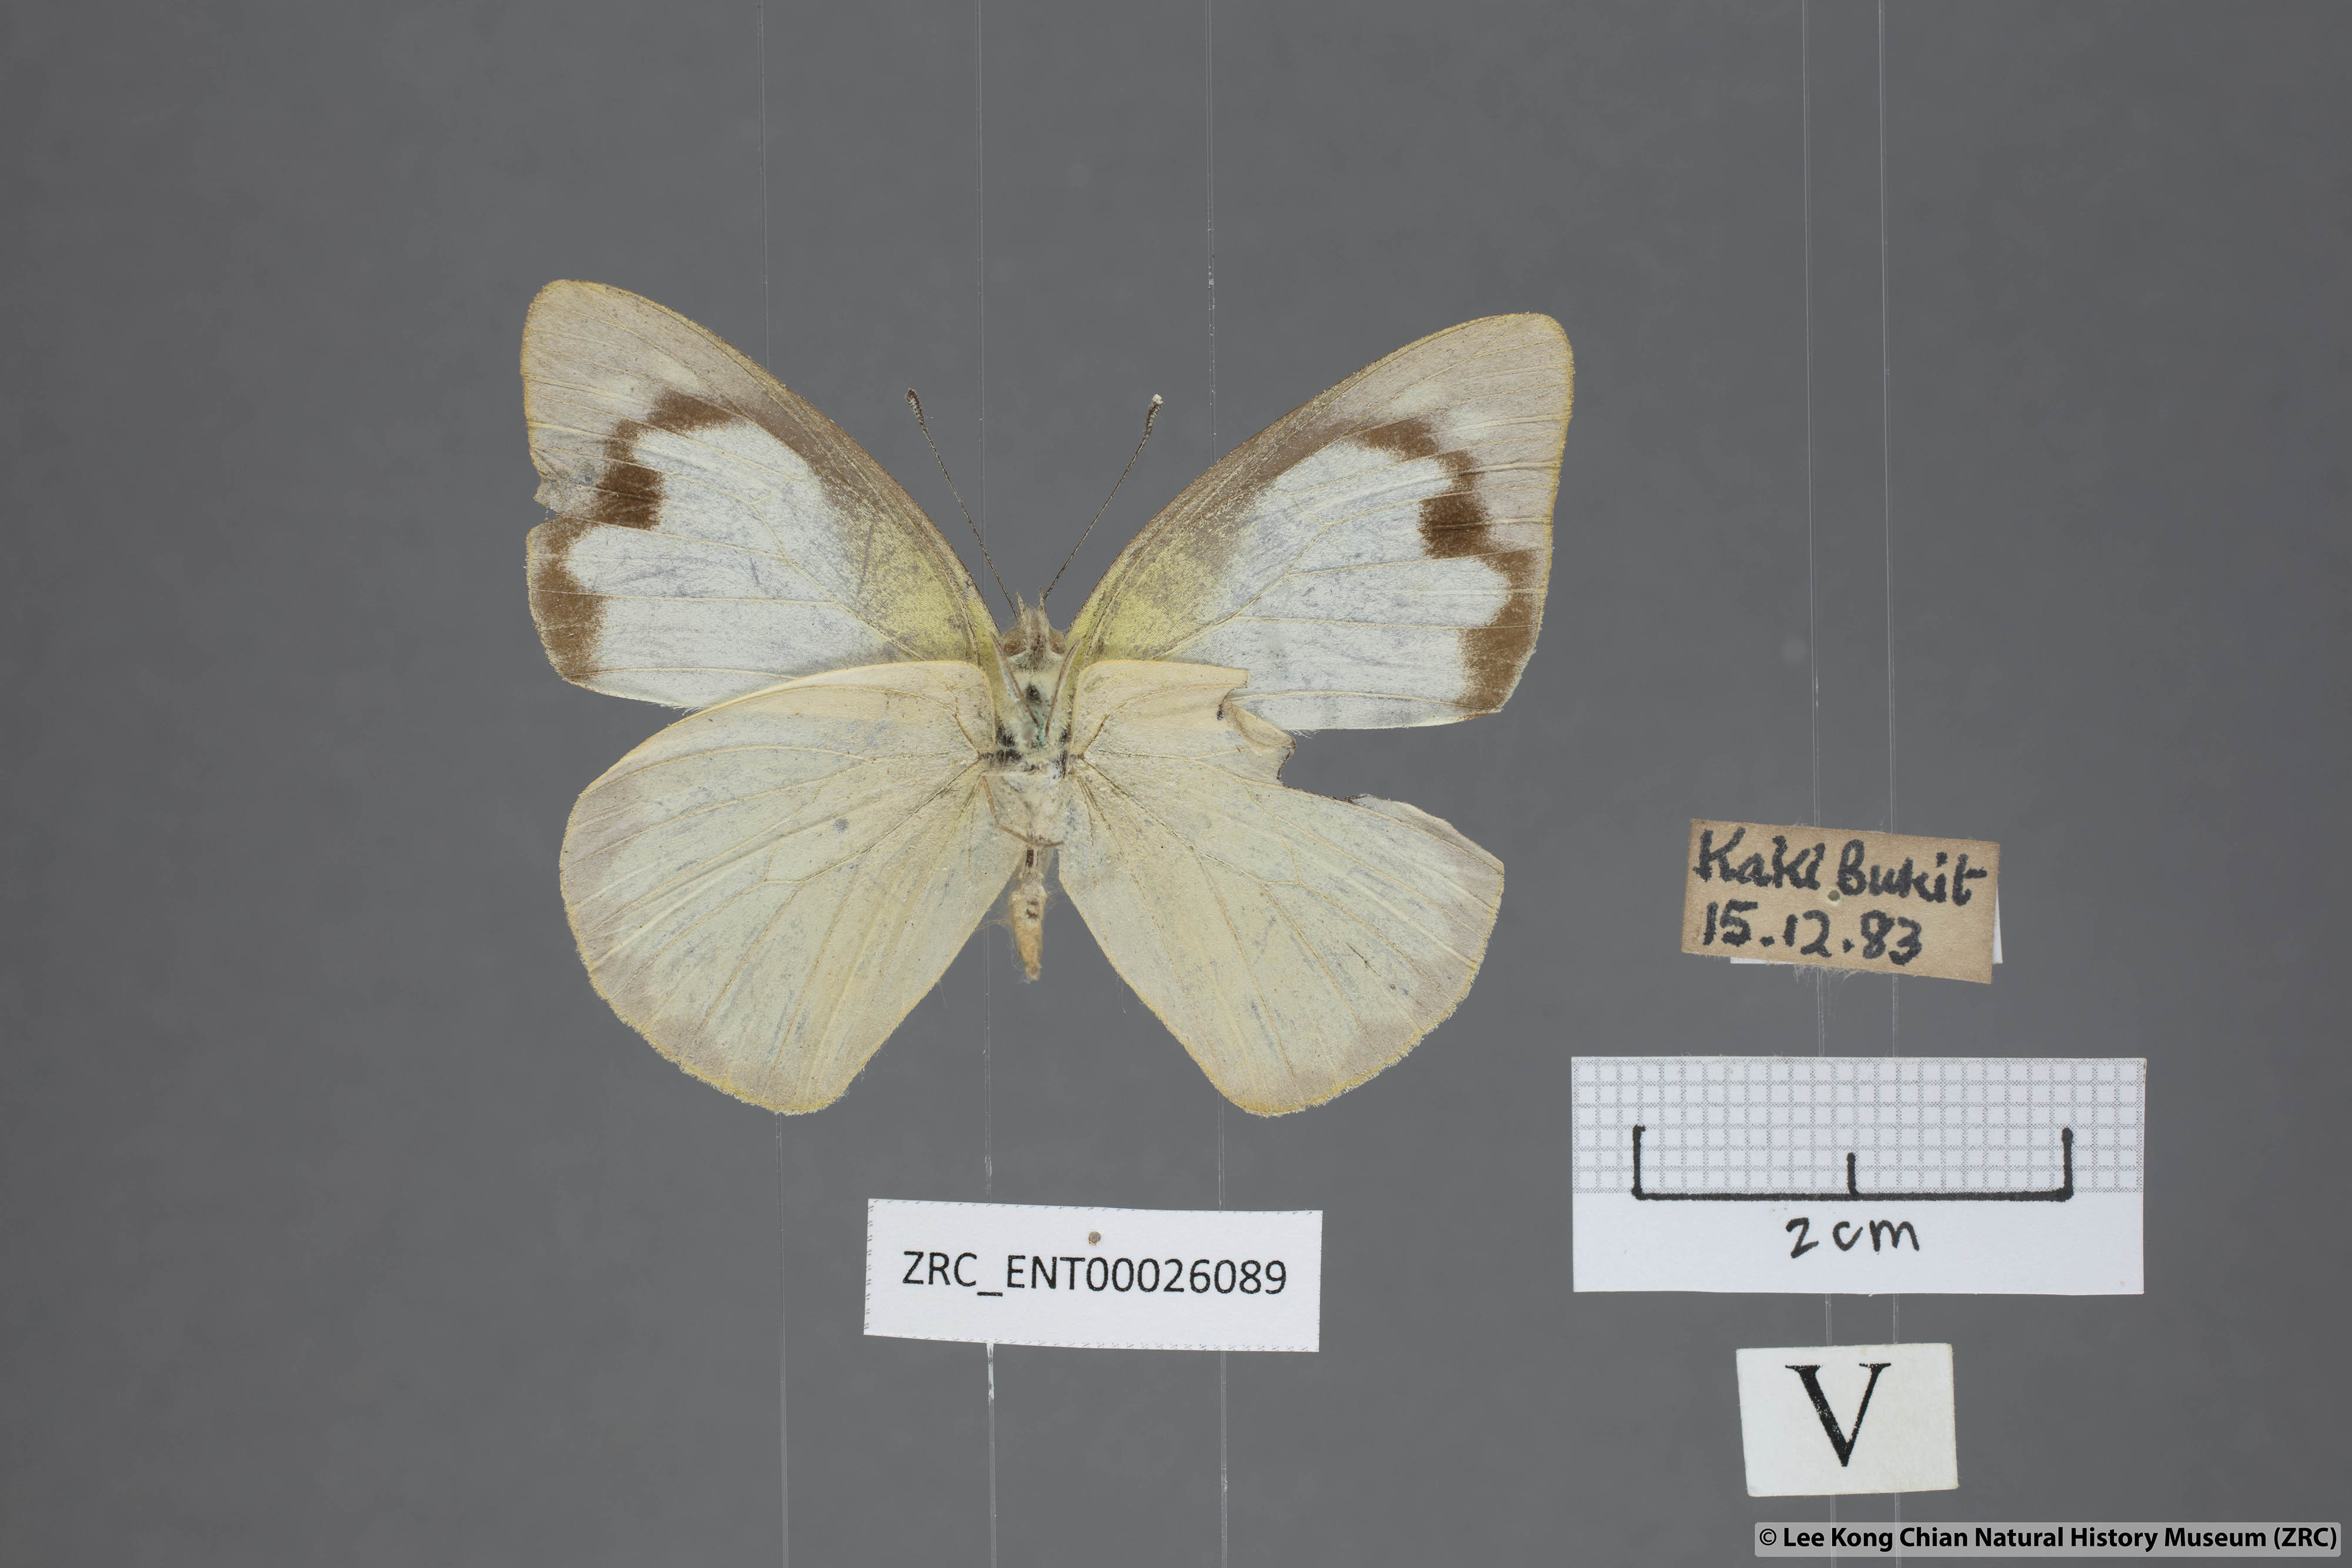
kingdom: Animalia
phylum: Arthropoda
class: Insecta
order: Lepidoptera
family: Pieridae
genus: Appias
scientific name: Appias albina
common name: Common albatross
